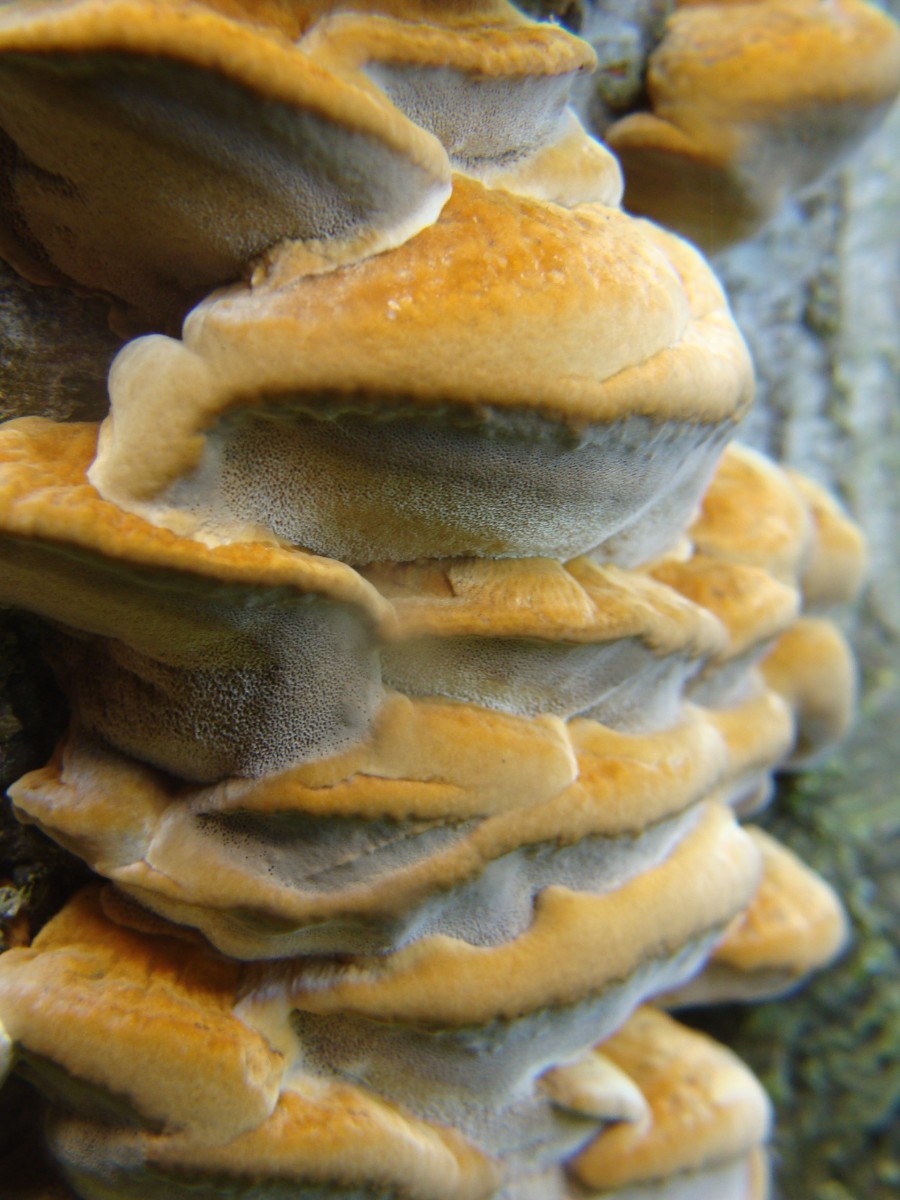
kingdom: Fungi
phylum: Basidiomycota
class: Agaricomycetes
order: Hymenochaetales
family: Hymenochaetaceae
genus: Xanthoporia
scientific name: Xanthoporia radiata
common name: elle-spejlporesvamp
